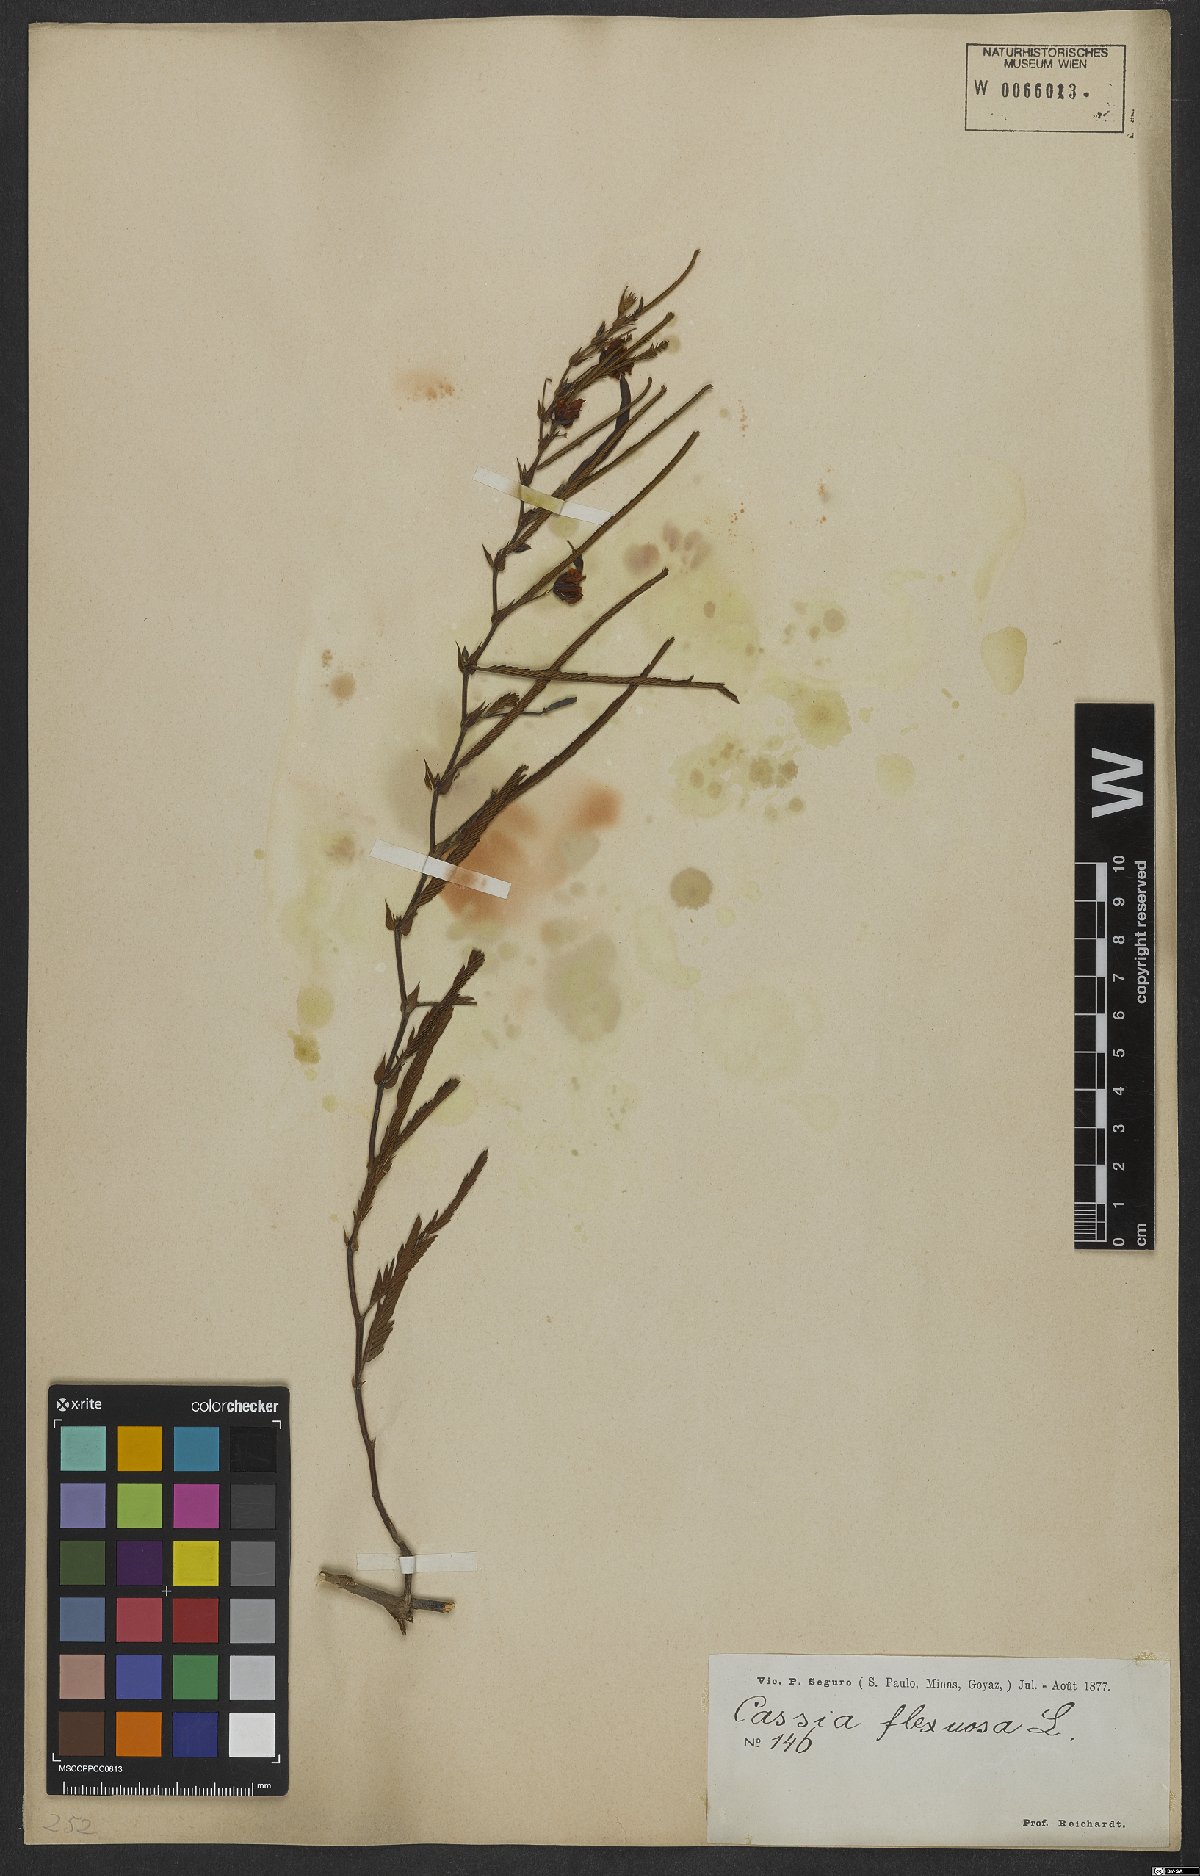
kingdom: Plantae
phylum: Tracheophyta
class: Magnoliopsida
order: Fabales
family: Fabaceae
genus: Chamaecrista
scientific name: Chamaecrista flexuosa
